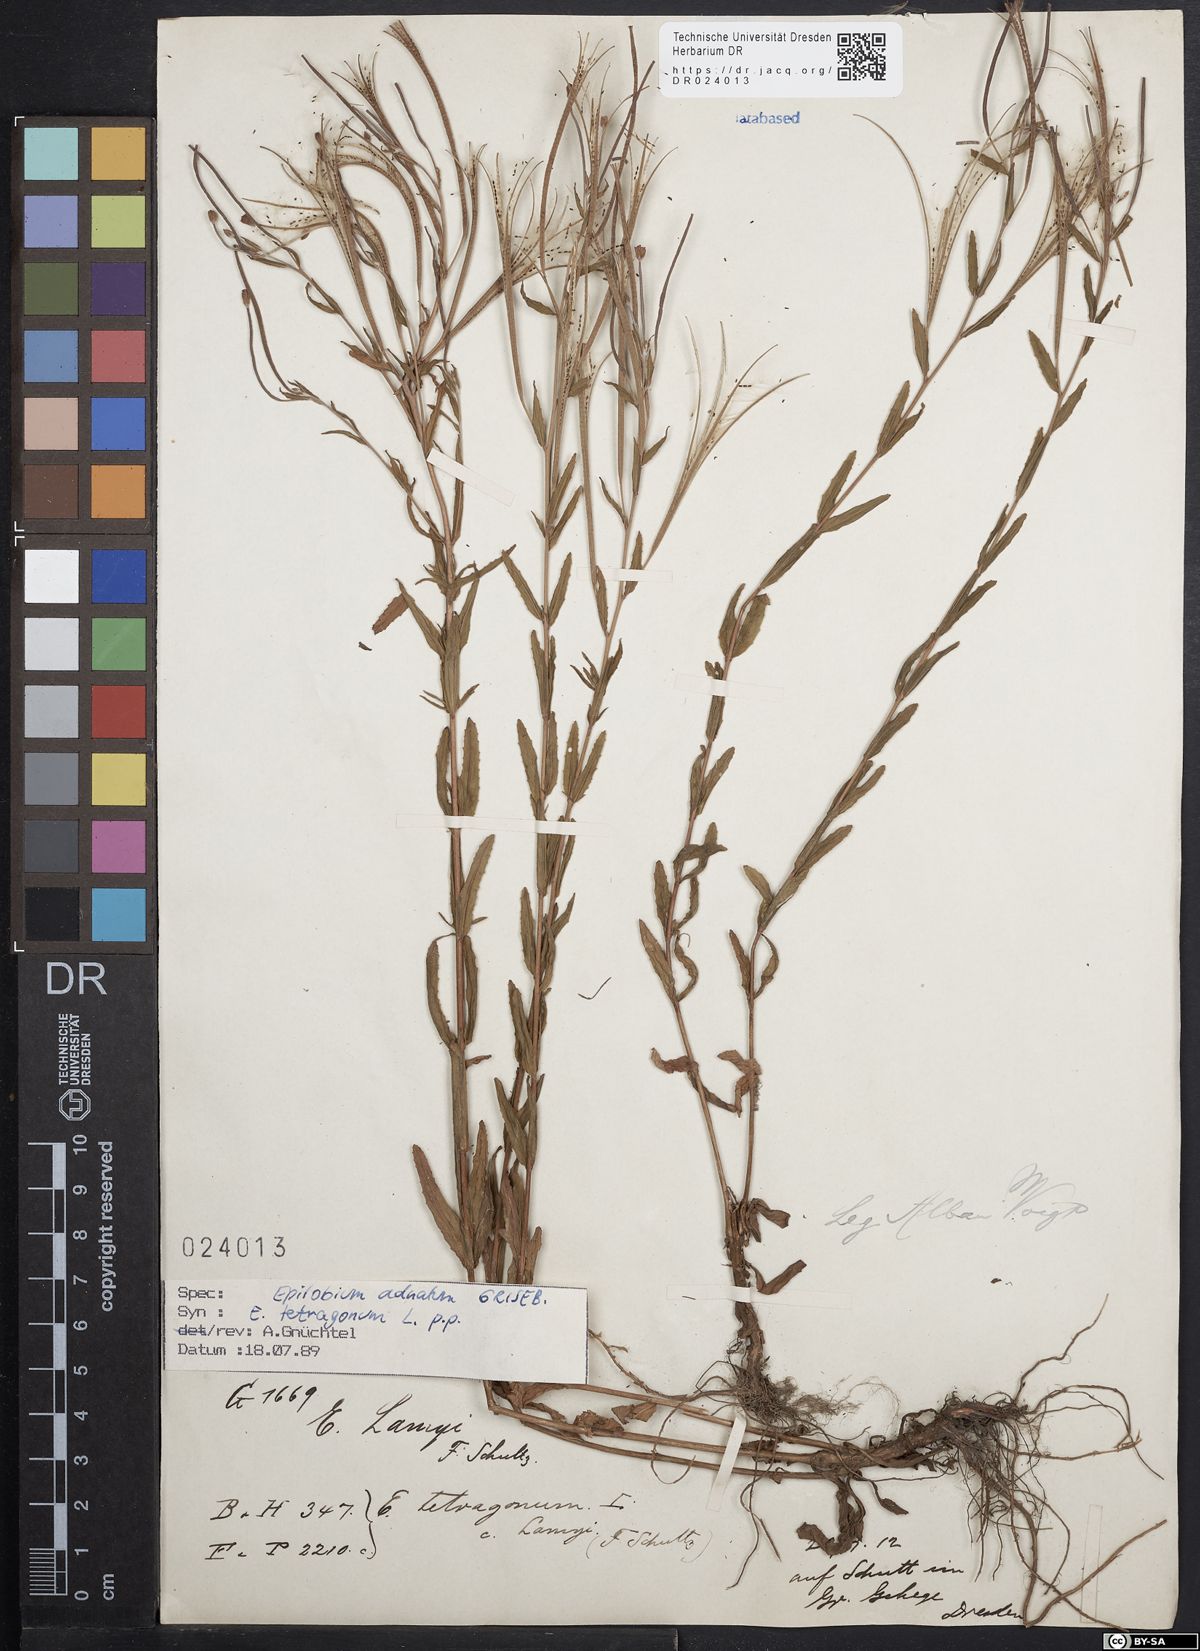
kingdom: Plantae
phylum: Tracheophyta
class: Magnoliopsida
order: Myrtales
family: Onagraceae
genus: Epilobium
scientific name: Epilobium tetragonum
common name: Square-stemmed willowherb
